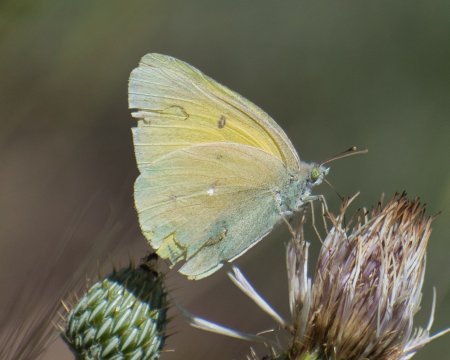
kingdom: Animalia
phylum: Arthropoda
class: Insecta
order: Lepidoptera
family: Pieridae
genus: Colias
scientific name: Colias alexandra
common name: Queen Alexandra's Sulphur
